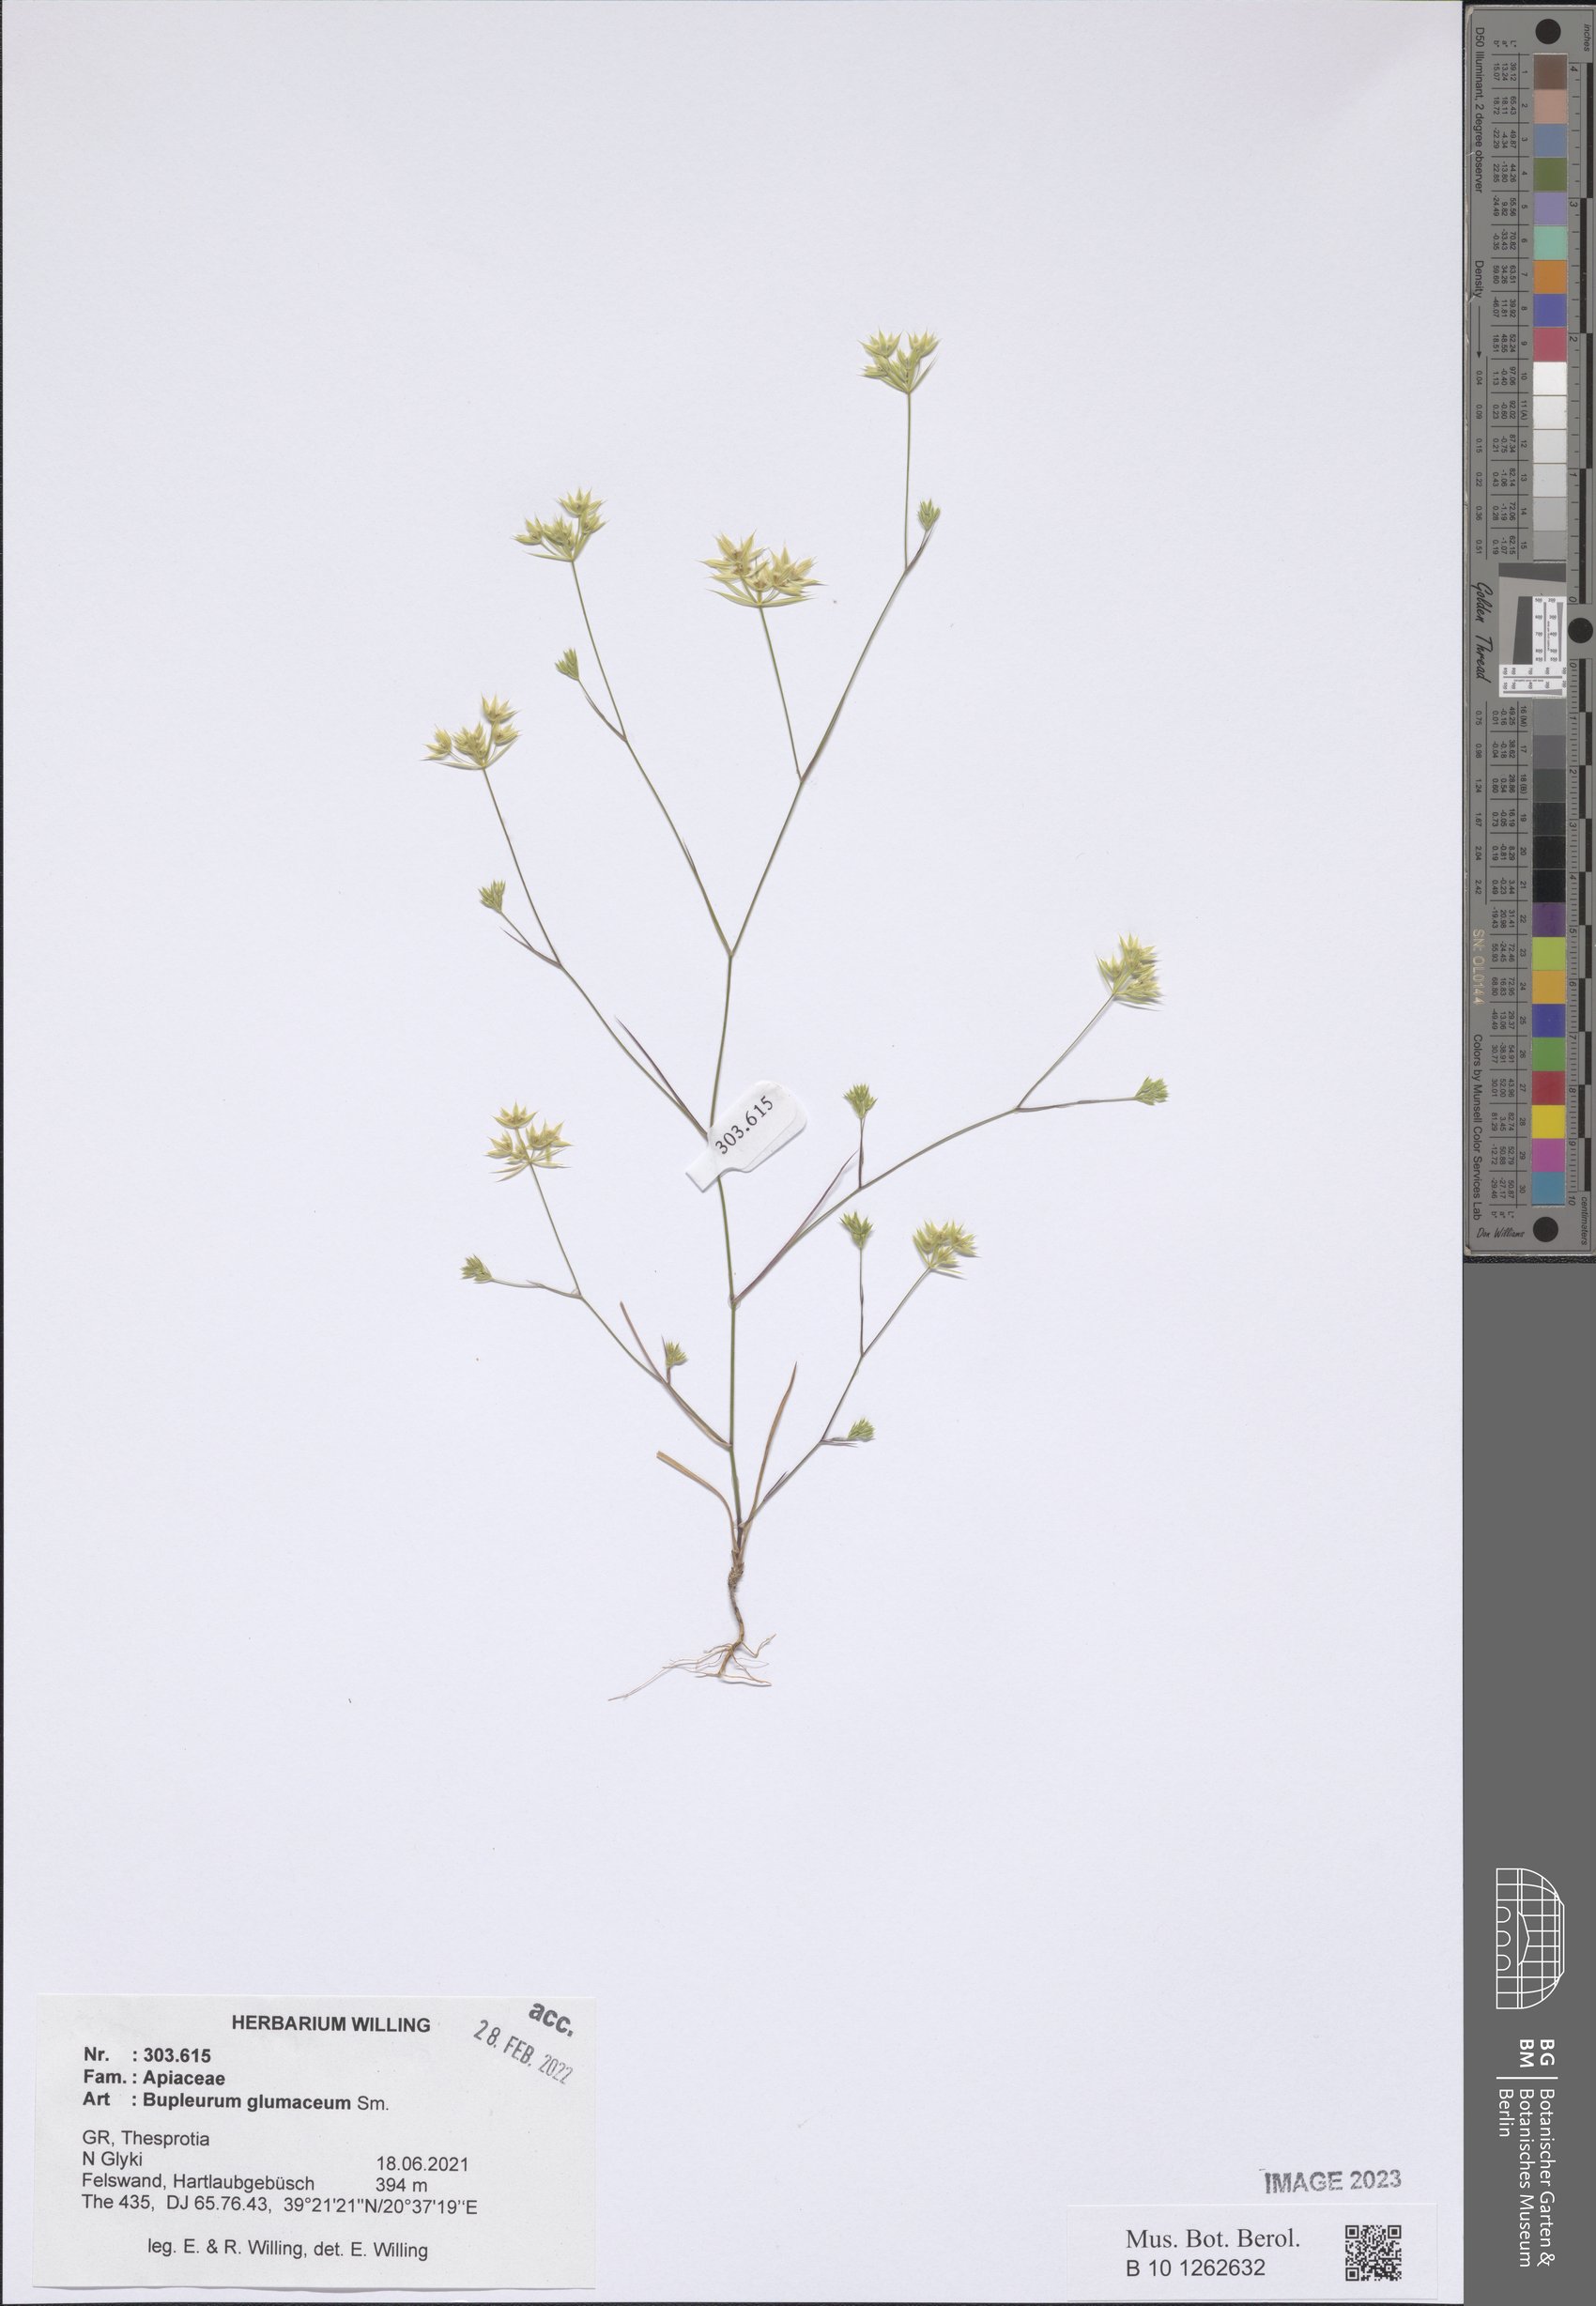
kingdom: Plantae
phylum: Tracheophyta
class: Magnoliopsida
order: Apiales
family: Apiaceae
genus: Bupleurum
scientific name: Bupleurum glumaceum
